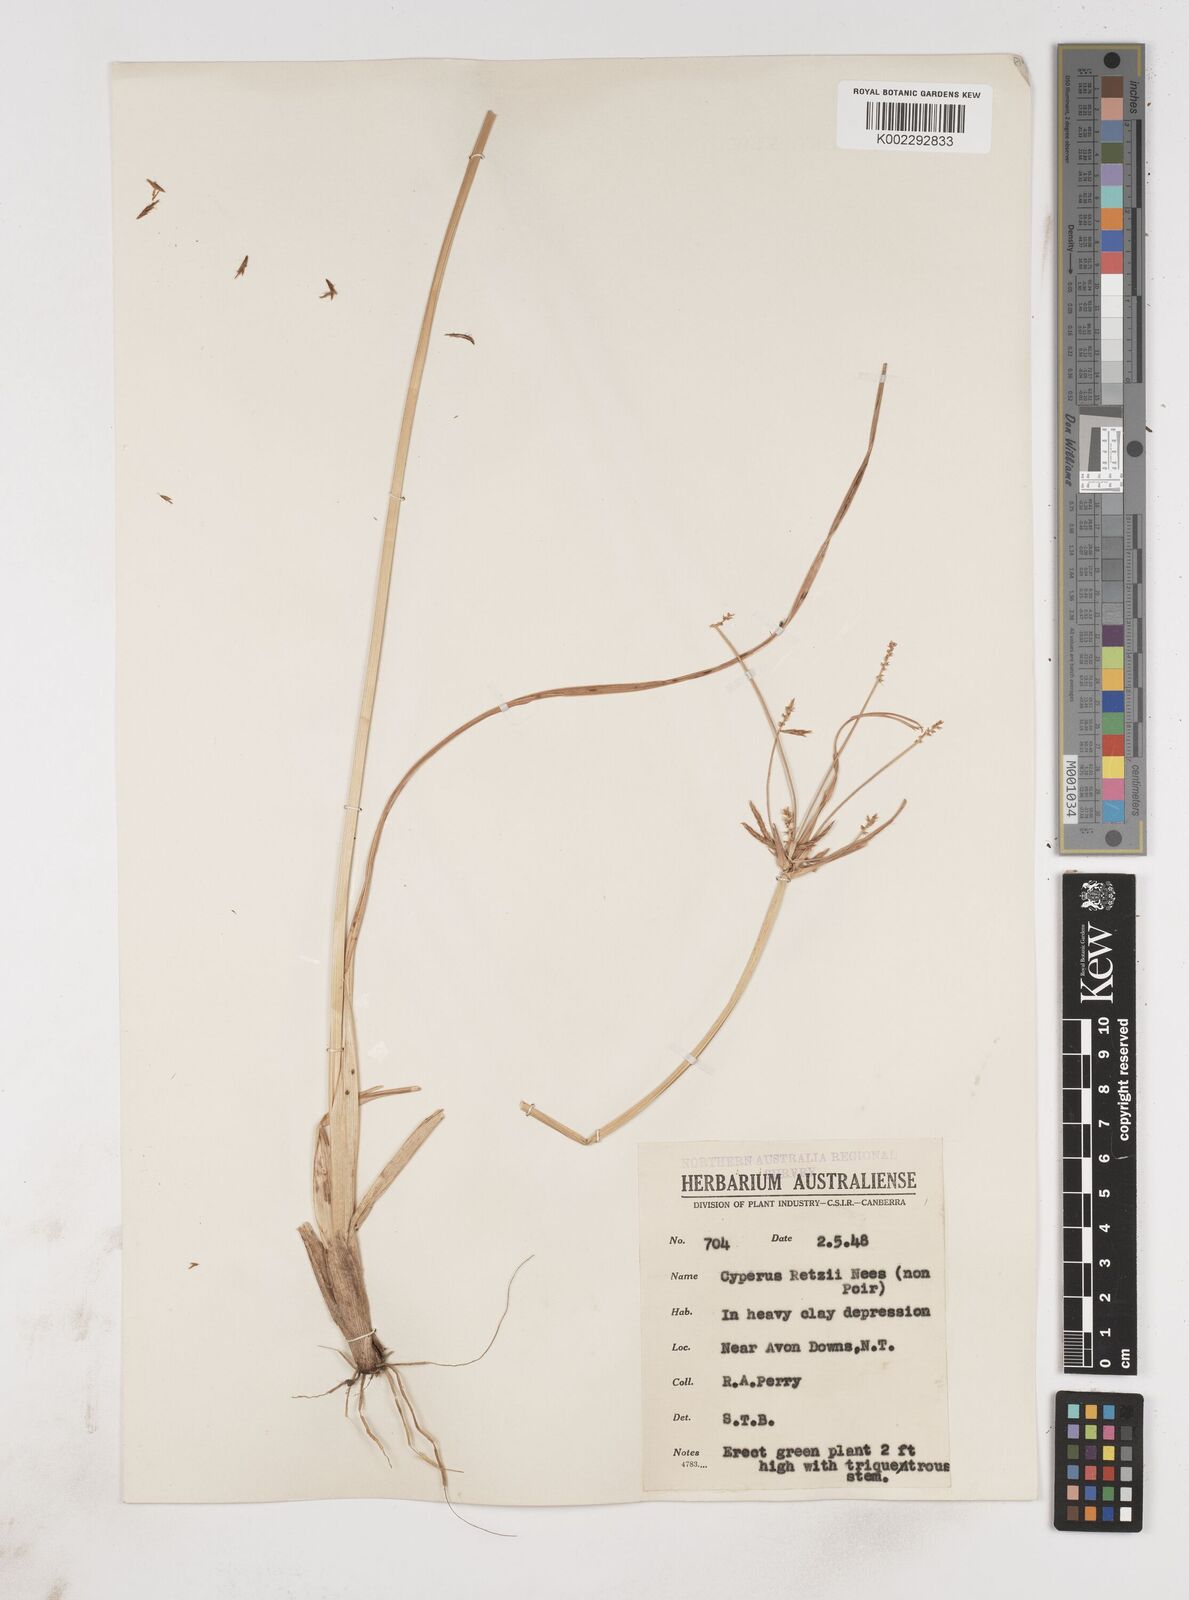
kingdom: Plantae
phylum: Tracheophyta
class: Liliopsida
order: Poales
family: Cyperaceae
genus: Cyperus
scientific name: Cyperus bifax
